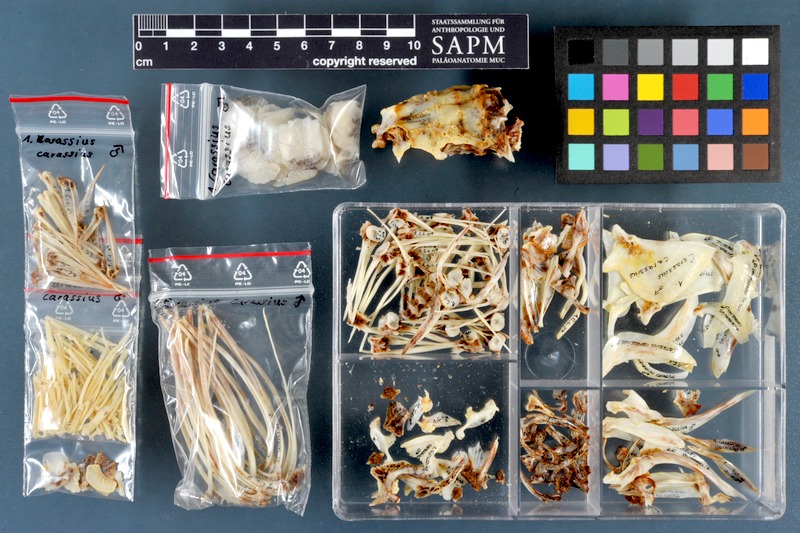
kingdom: Animalia
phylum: Chordata
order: Cypriniformes
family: Cyprinidae
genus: Carassius
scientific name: Carassius carassius
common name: Crucian carp
